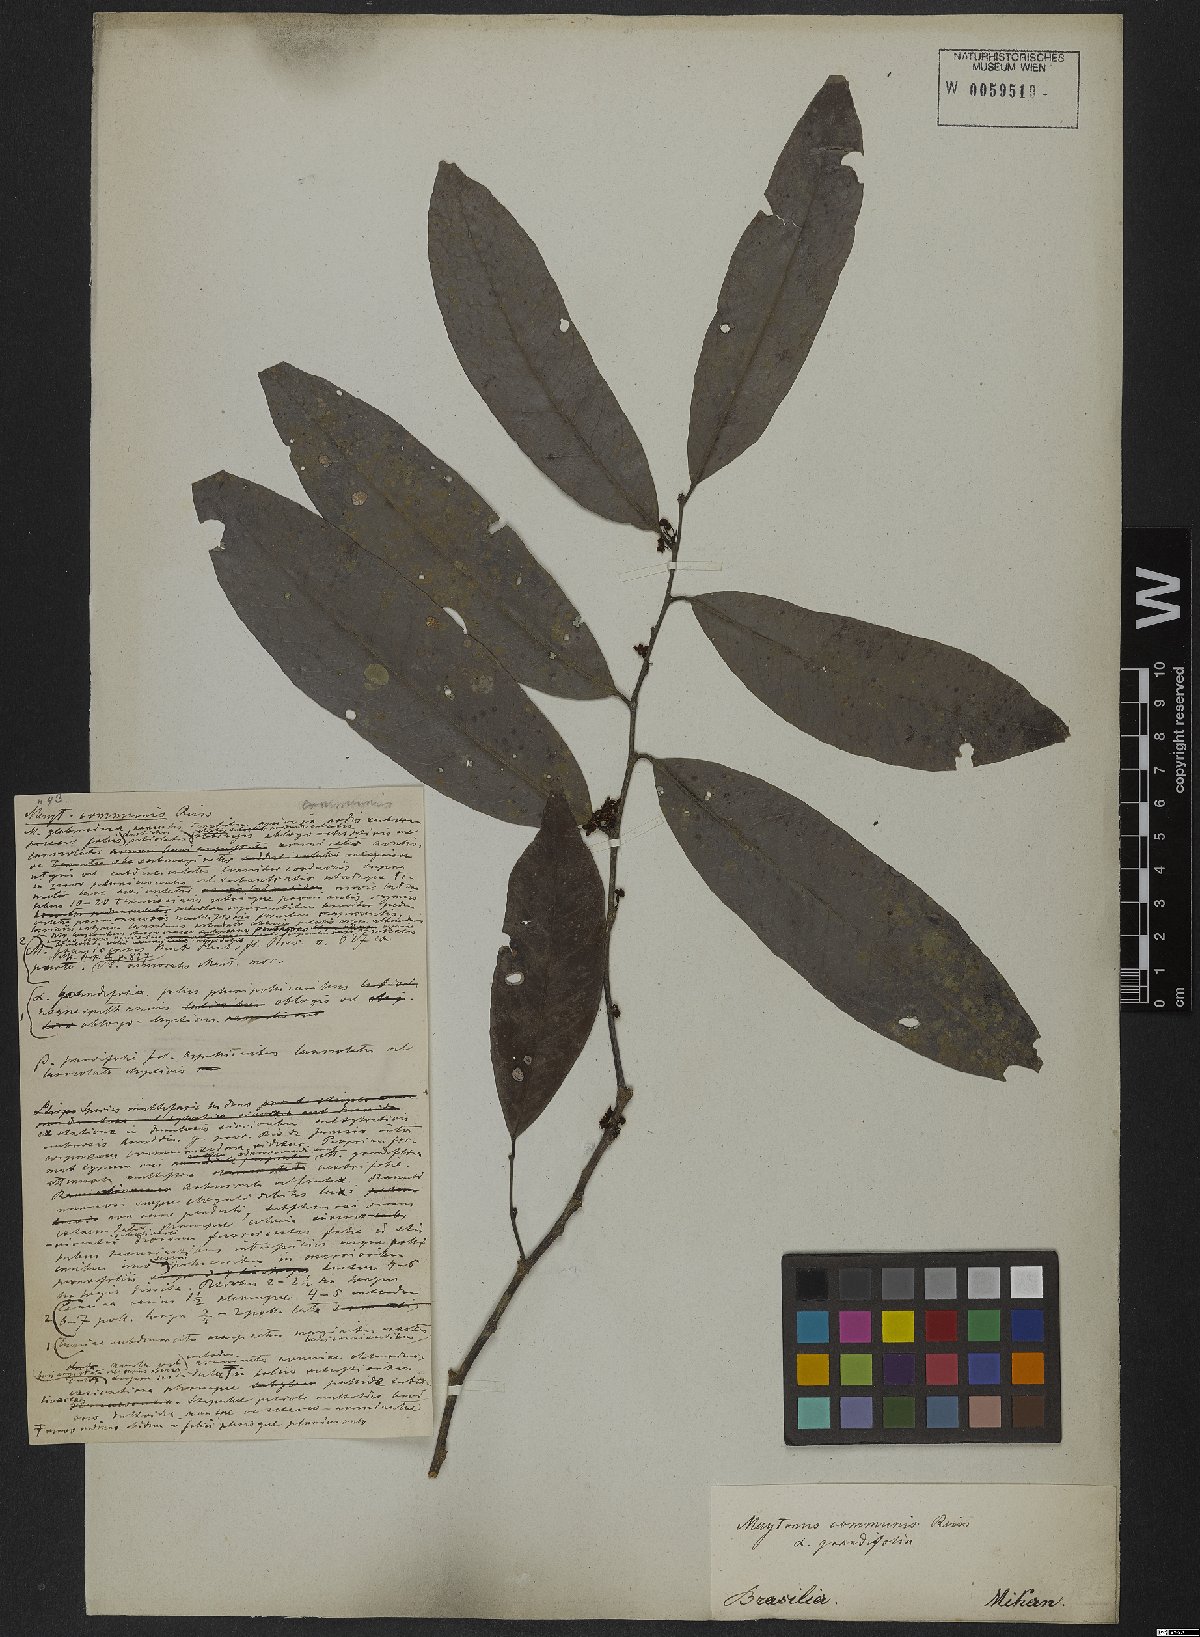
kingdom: Plantae
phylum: Tracheophyta
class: Magnoliopsida
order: Celastrales
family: Celastraceae
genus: Monteverdia
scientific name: Monteverdia communis
